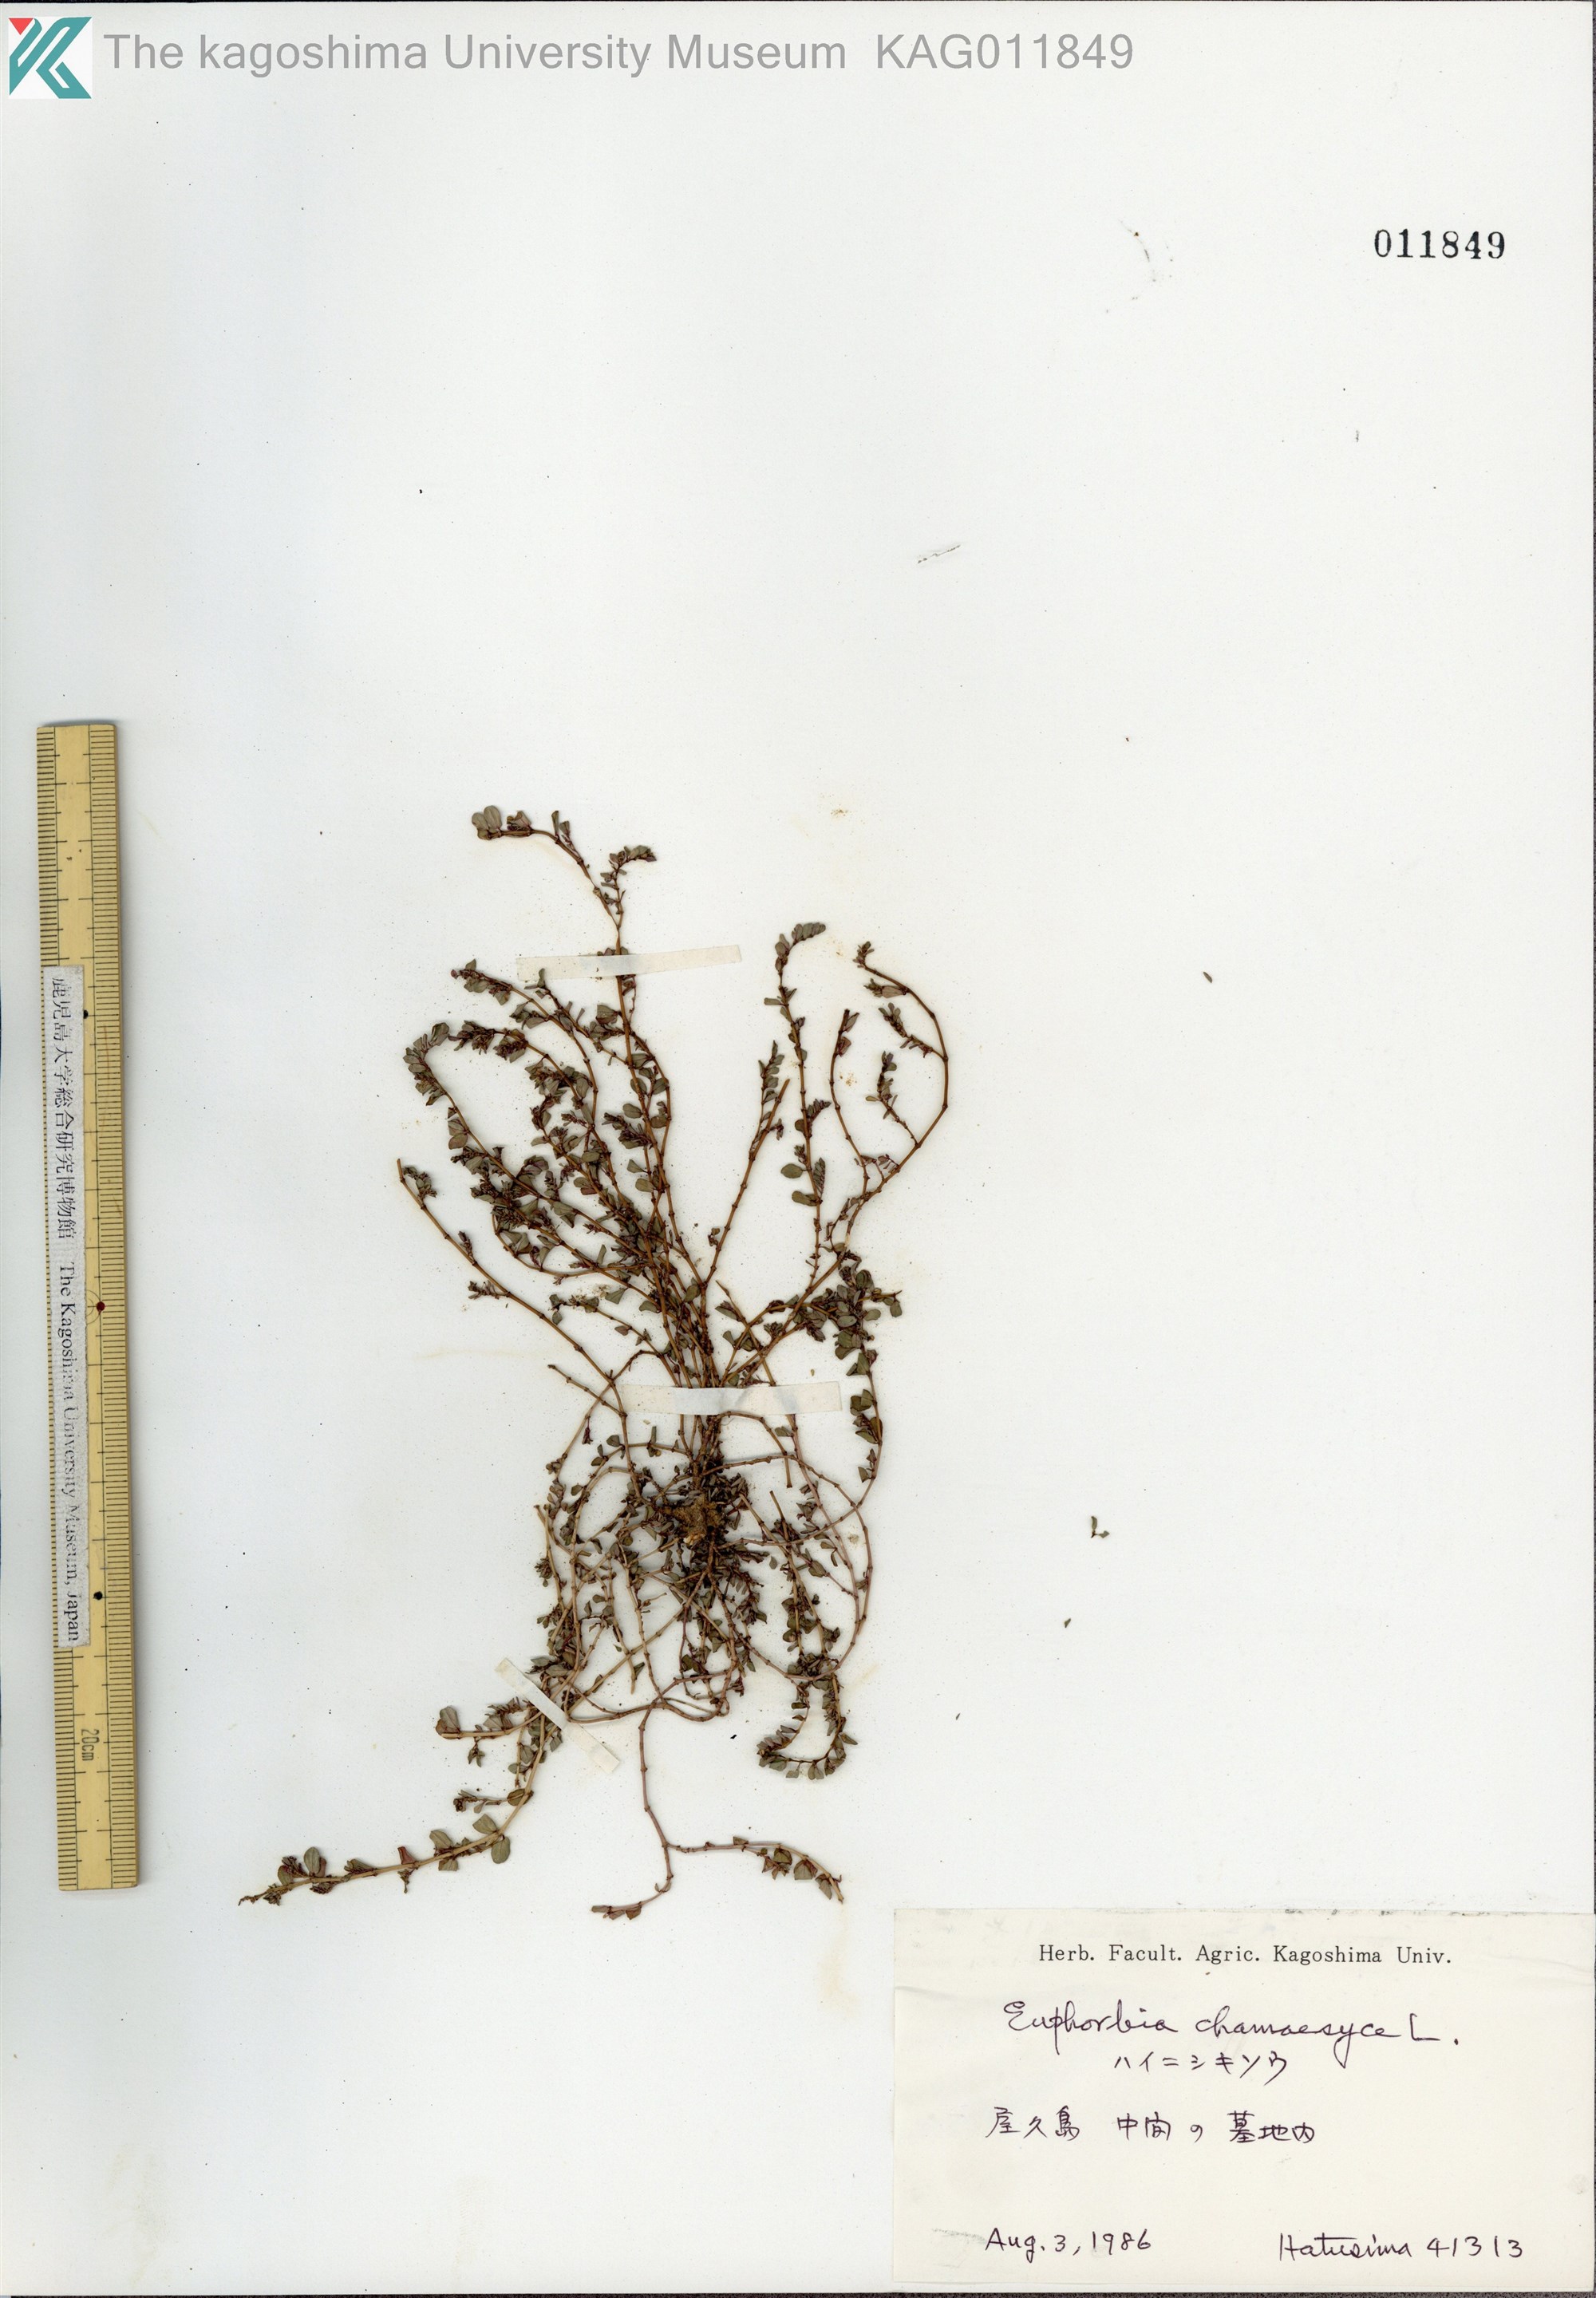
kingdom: Plantae
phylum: Tracheophyta
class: Magnoliopsida
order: Malpighiales
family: Euphorbiaceae
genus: Euphorbia
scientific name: Euphorbia prostrata
